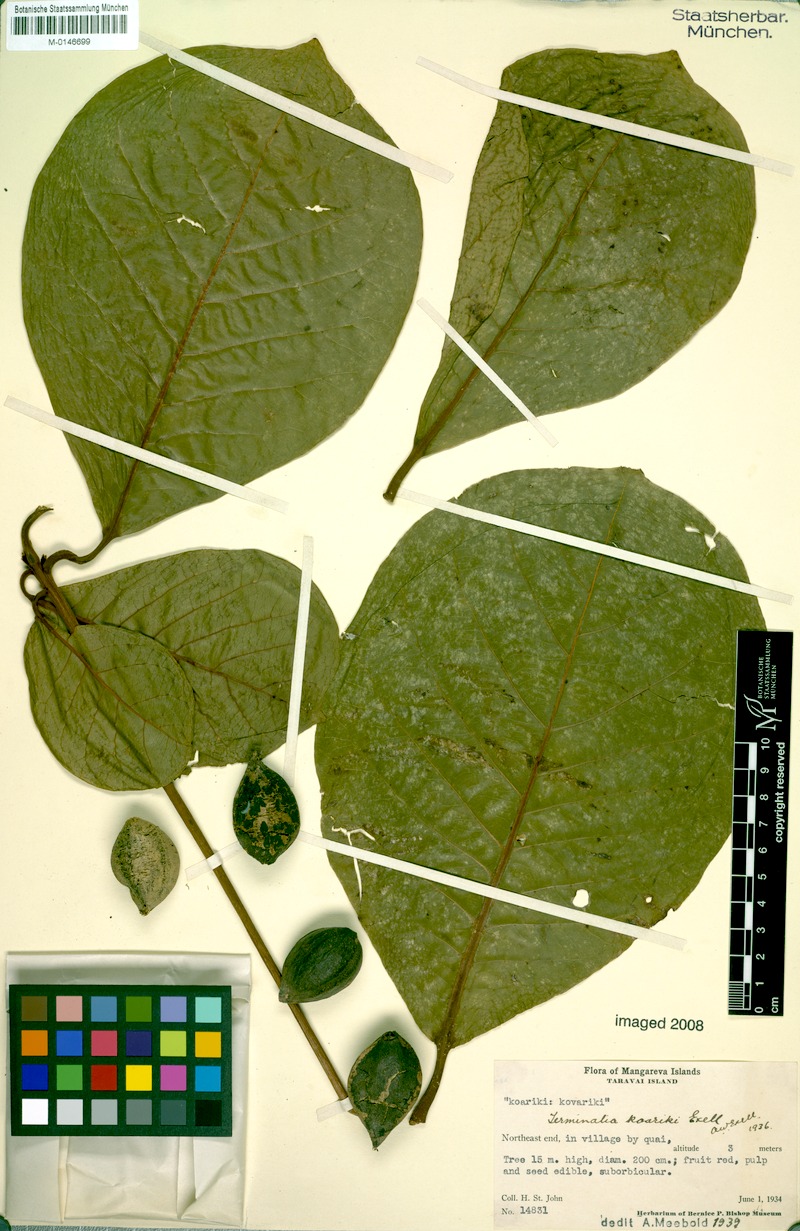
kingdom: Plantae
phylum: Tracheophyta
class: Magnoliopsida
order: Myrtales
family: Combretaceae
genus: Terminalia
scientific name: Terminalia glabrata
